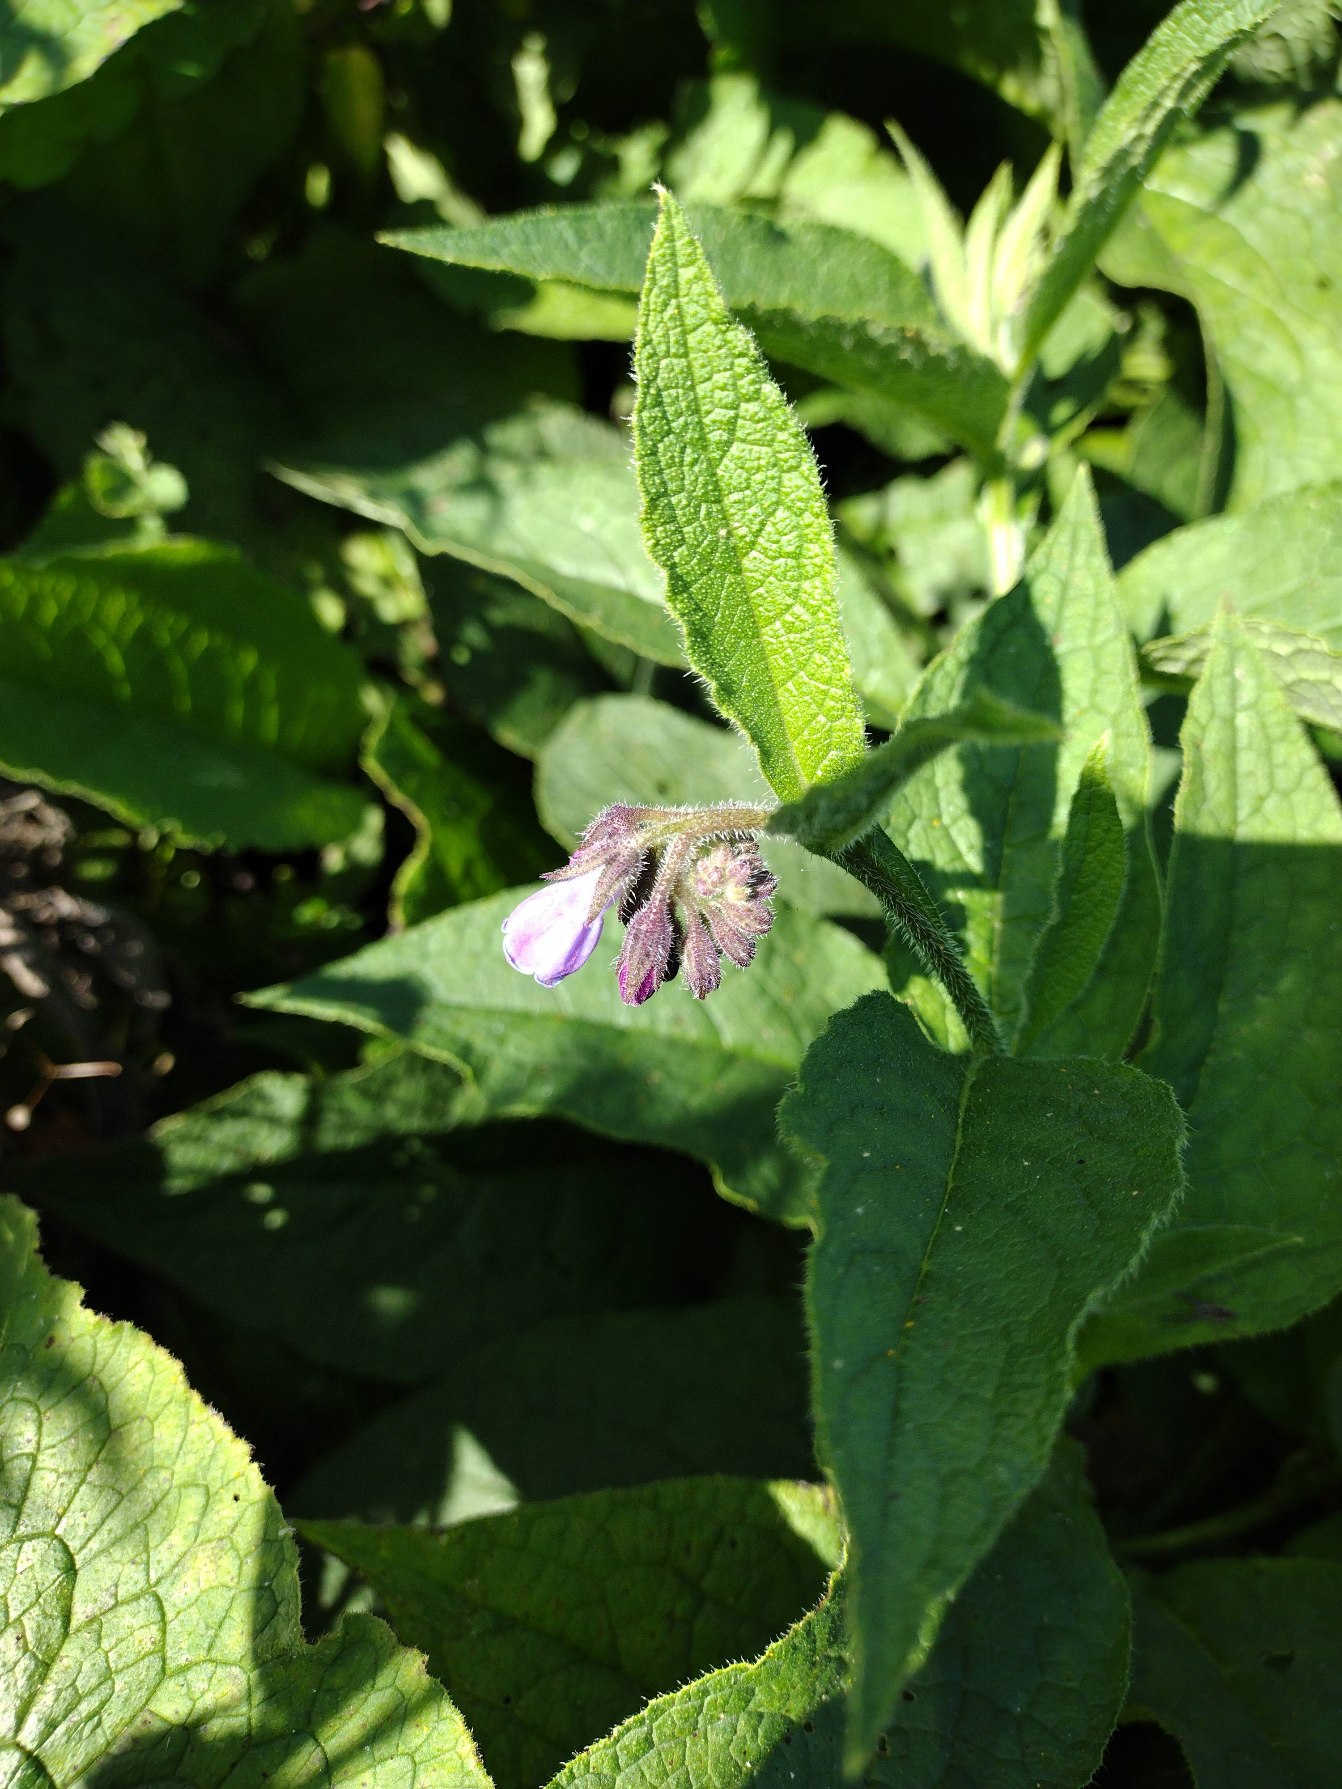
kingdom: Plantae
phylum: Tracheophyta
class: Magnoliopsida
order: Boraginales
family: Boraginaceae
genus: Symphytum
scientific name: Symphytum uplandicum
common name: Foder-kulsukker
